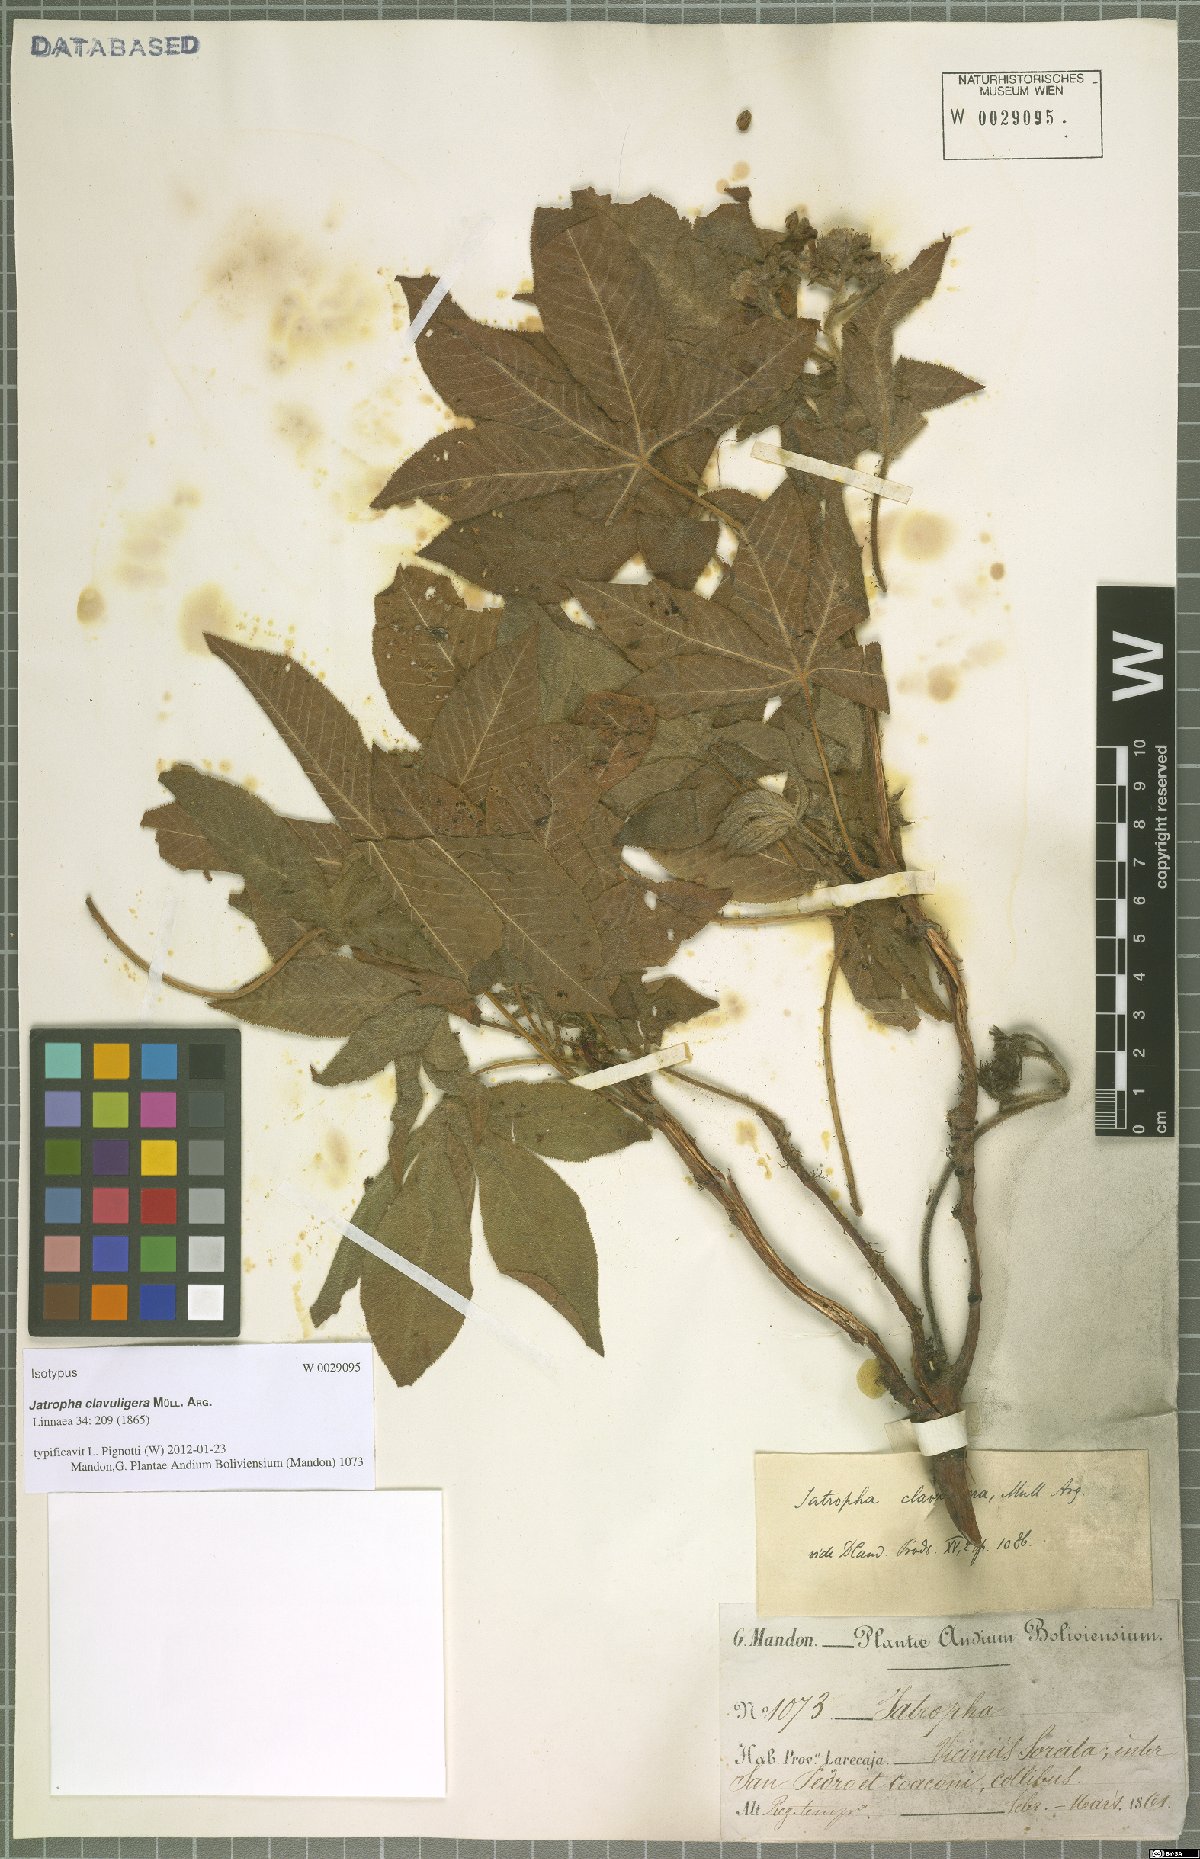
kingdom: Plantae
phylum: Tracheophyta
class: Magnoliopsida
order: Malpighiales
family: Euphorbiaceae
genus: Jatropha
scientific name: Jatropha clavuligera
